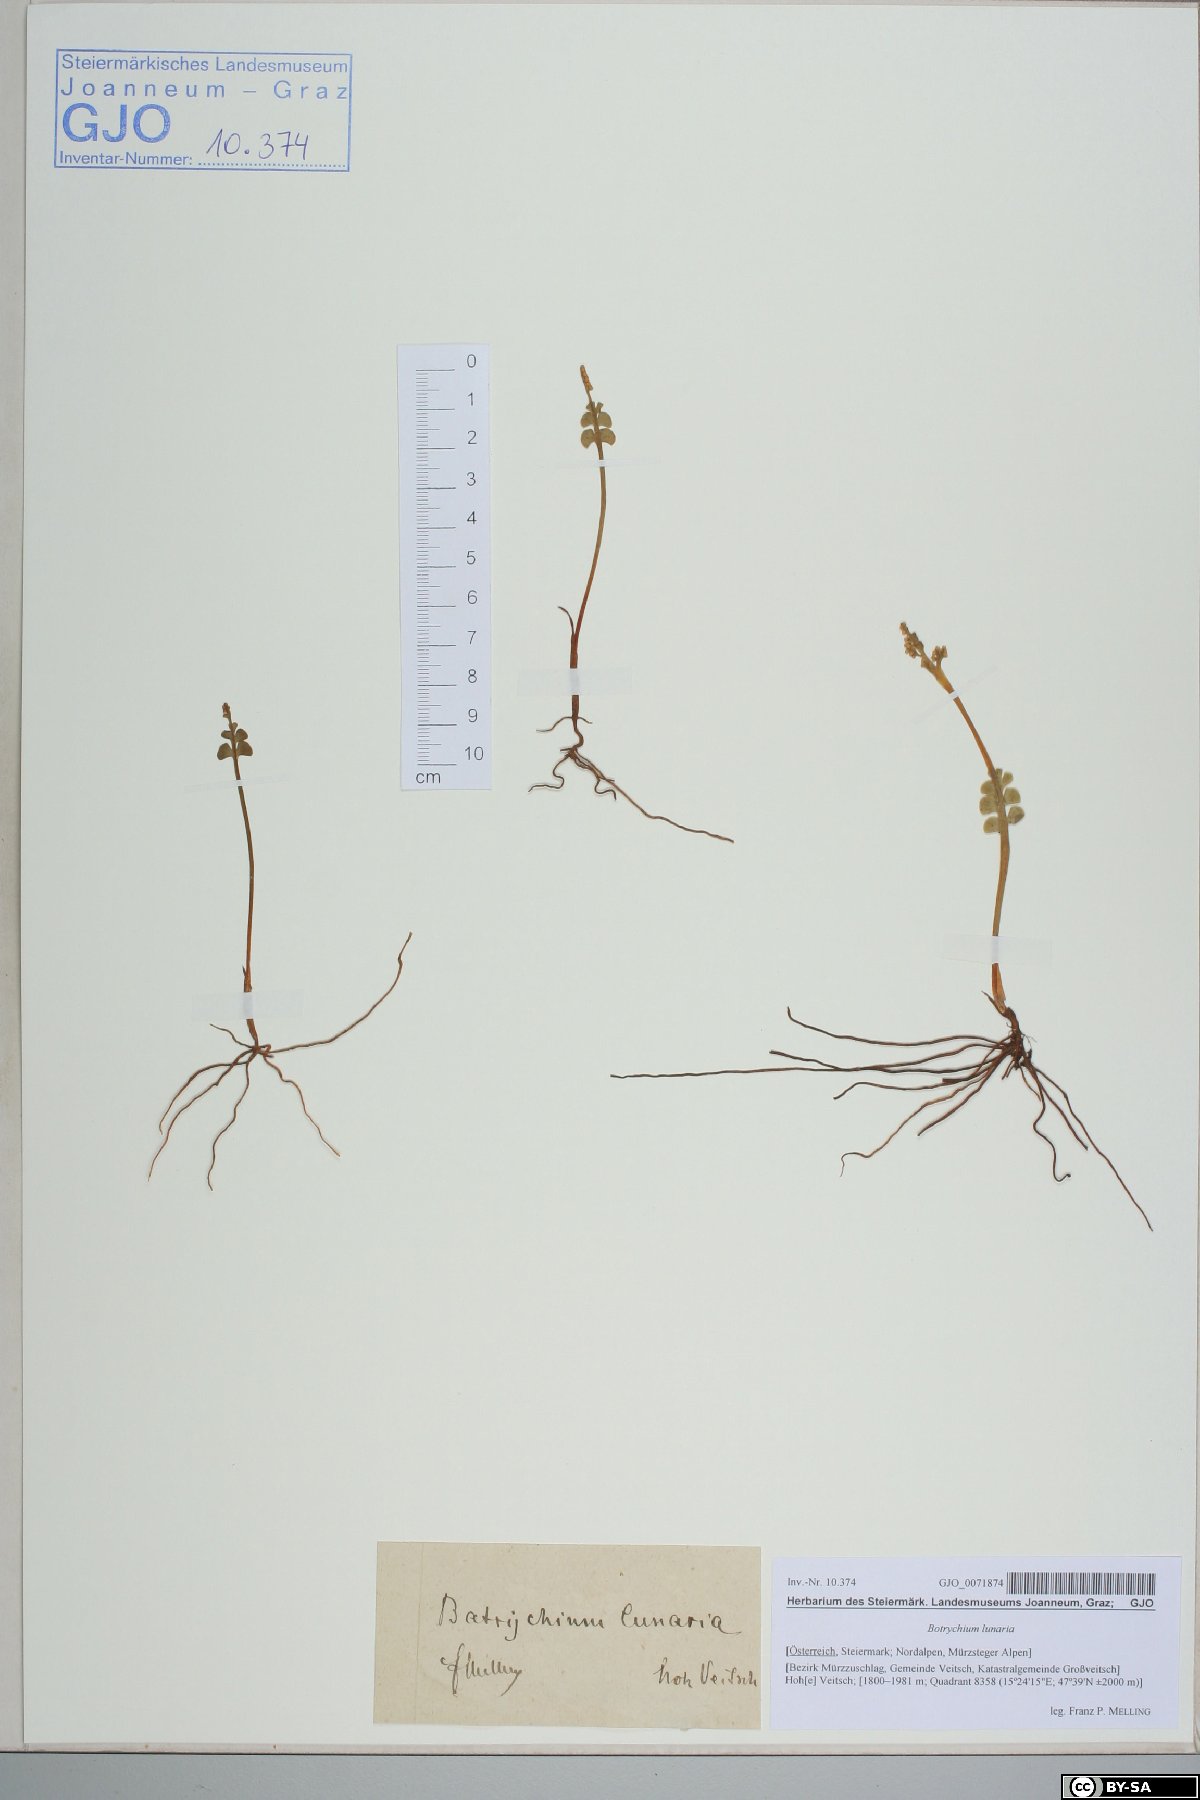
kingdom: Plantae
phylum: Tracheophyta
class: Polypodiopsida
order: Ophioglossales
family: Ophioglossaceae
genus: Botrychium
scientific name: Botrychium lunaria
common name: Moonwort
